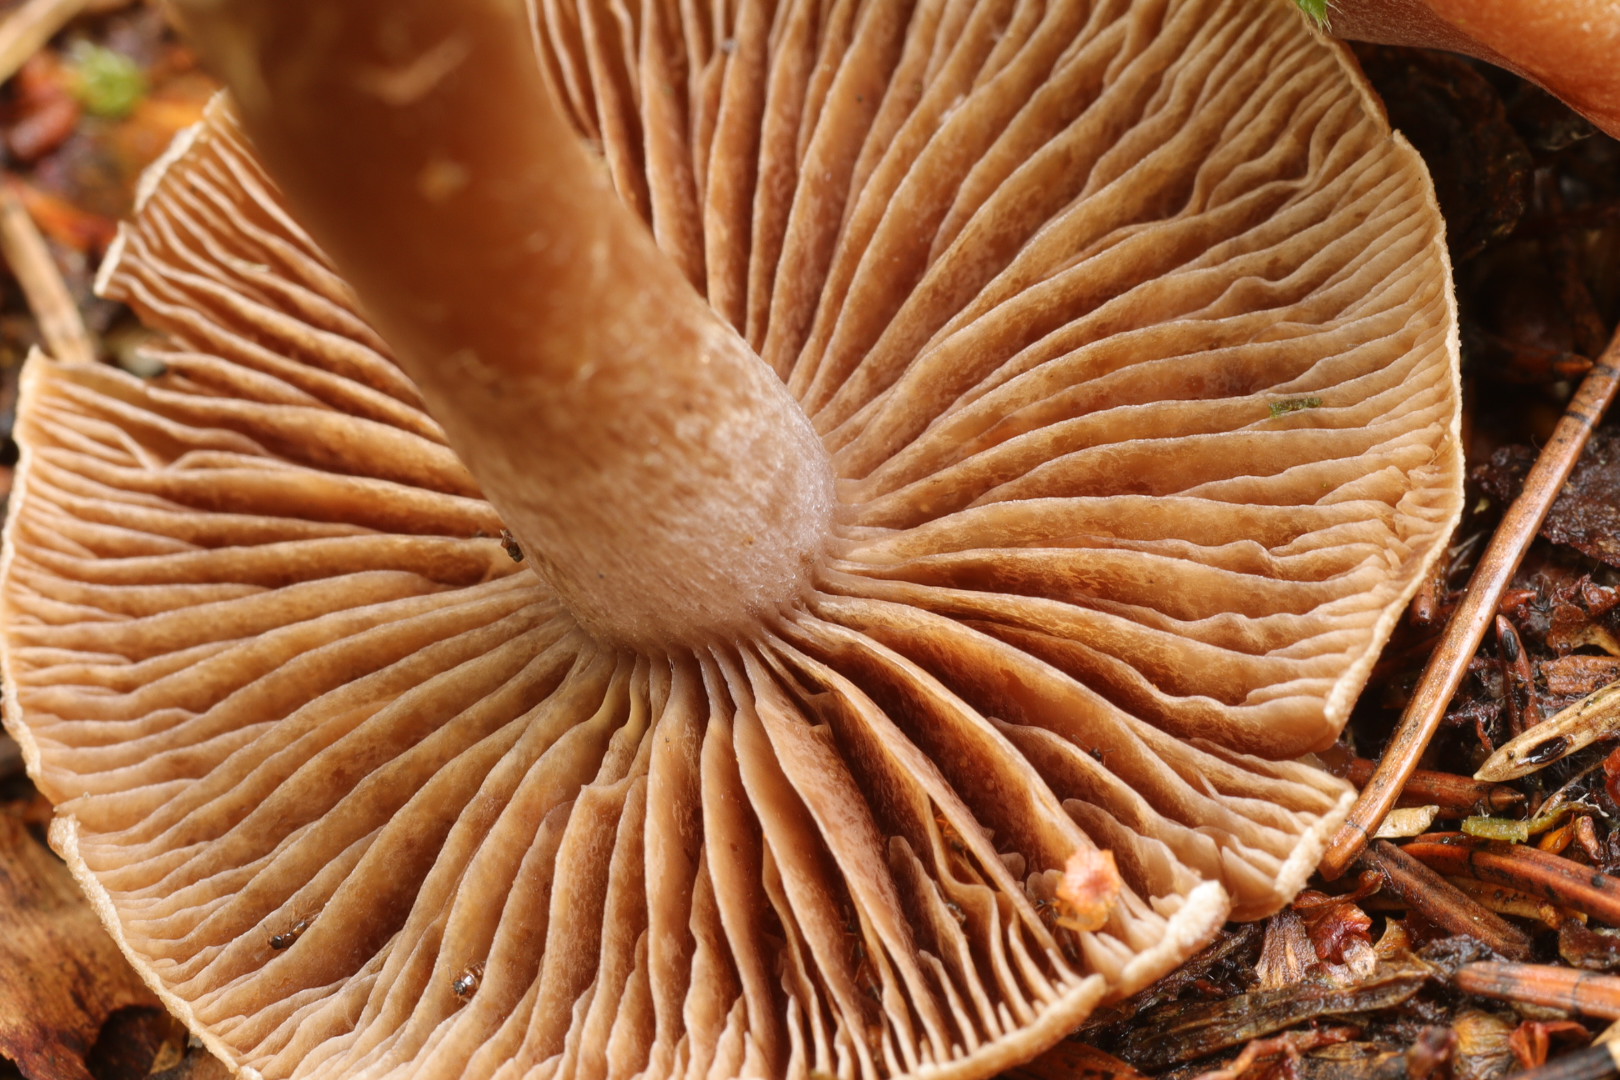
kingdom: Fungi
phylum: Basidiomycota
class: Agaricomycetes
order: Agaricales
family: Cortinariaceae
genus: Cortinarius
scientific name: Cortinarius comptulus
